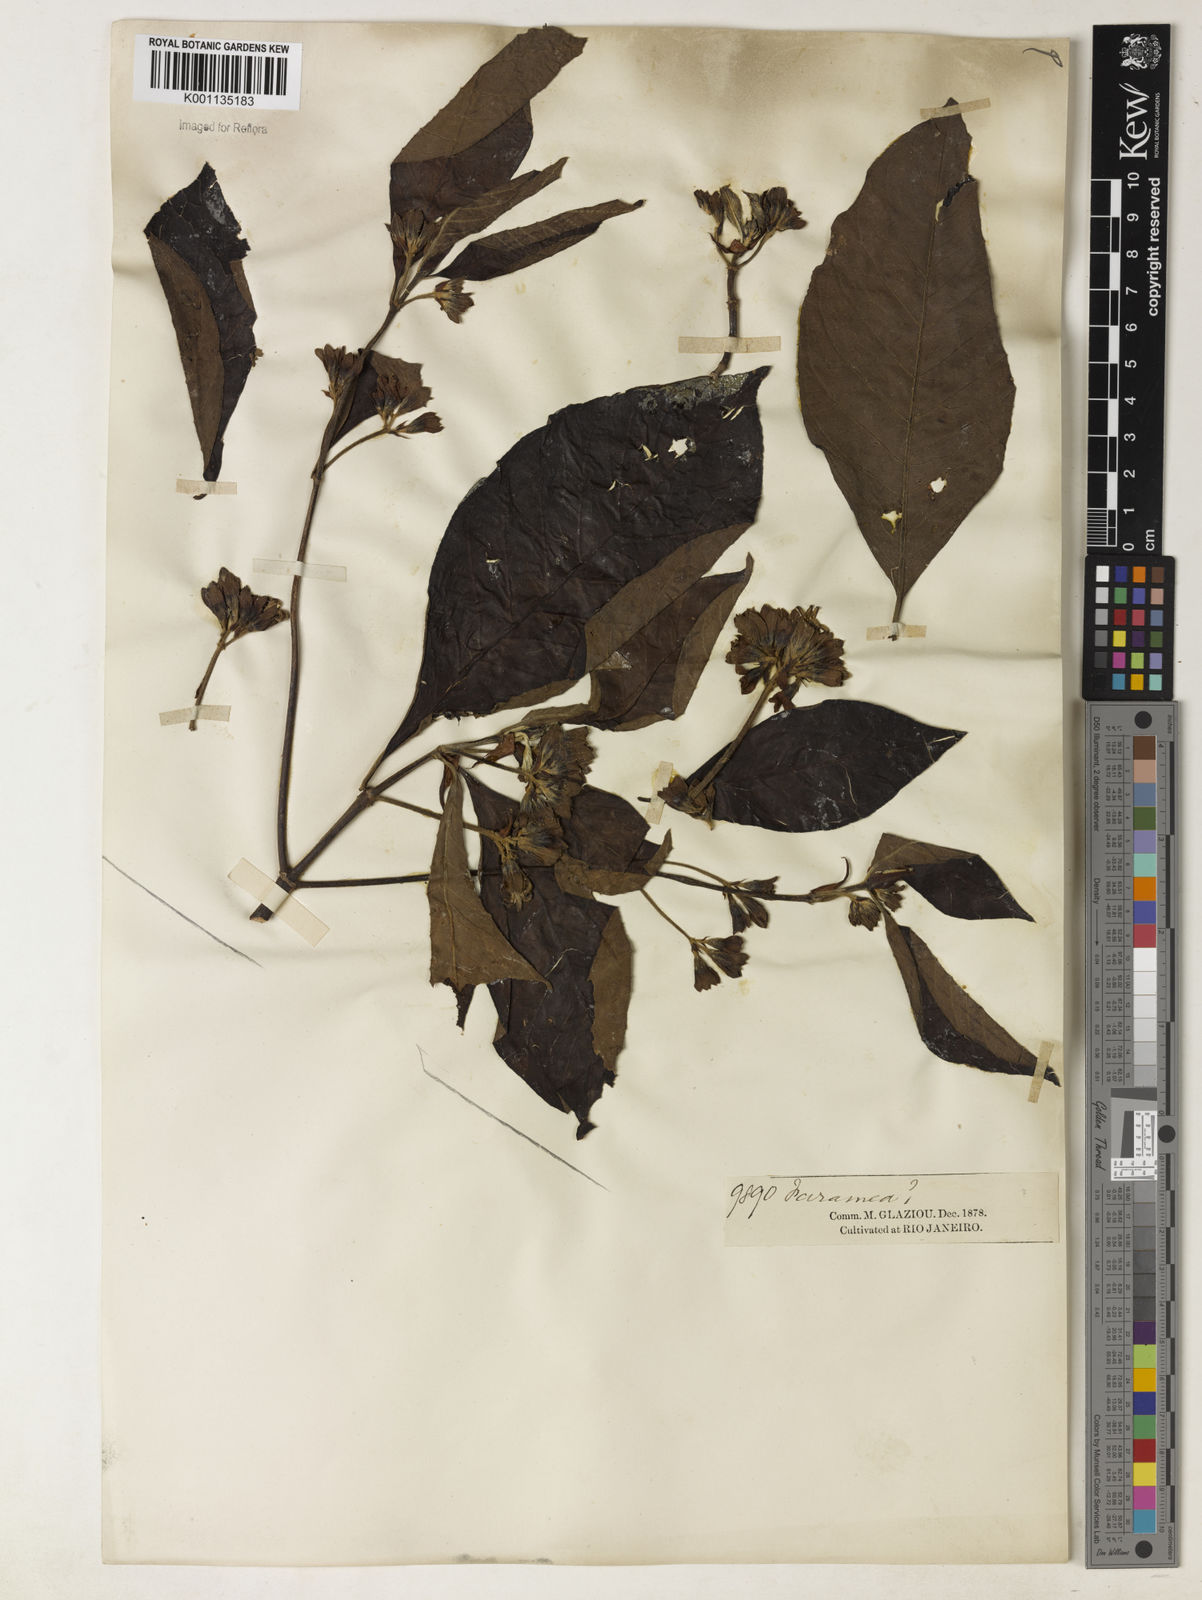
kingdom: Plantae
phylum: Tracheophyta
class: Magnoliopsida
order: Gentianales
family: Rubiaceae
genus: Sommera
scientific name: Sommera sabiceoides
